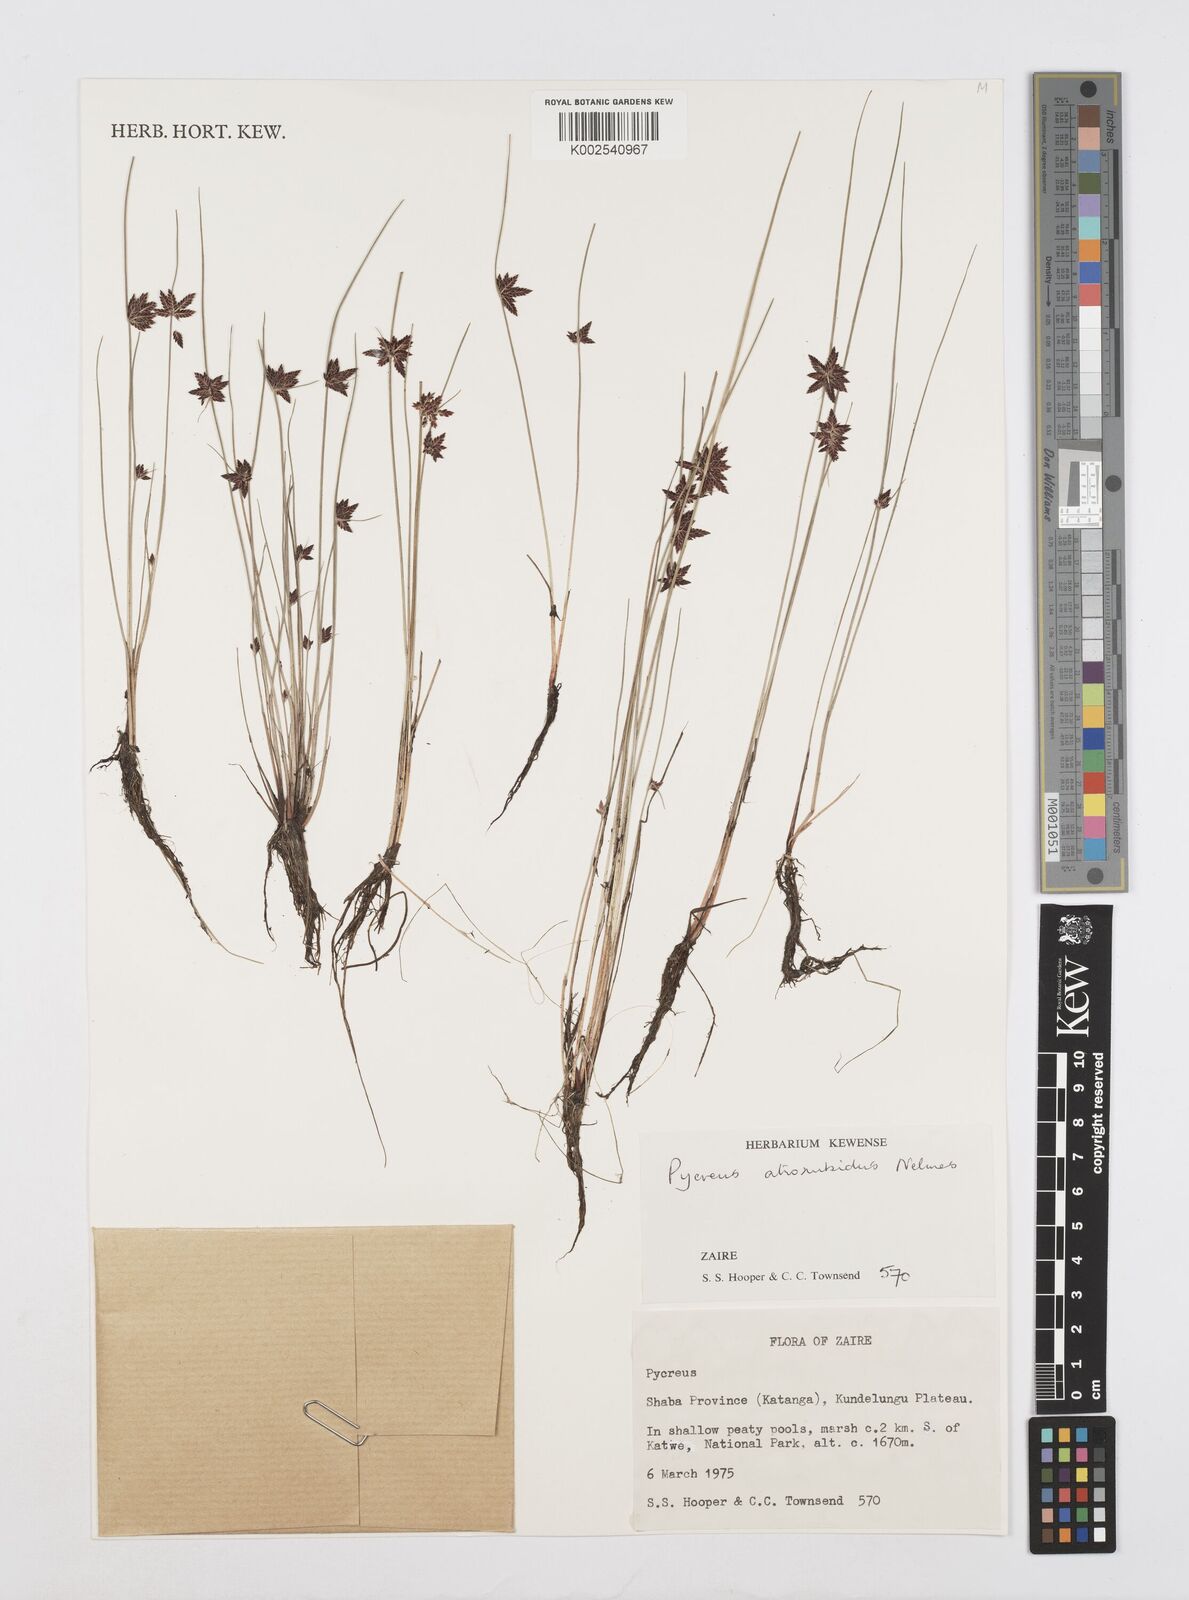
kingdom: Plantae
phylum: Tracheophyta
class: Liliopsida
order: Poales
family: Cyperaceae
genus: Cyperus
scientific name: Cyperus atrorubidus
